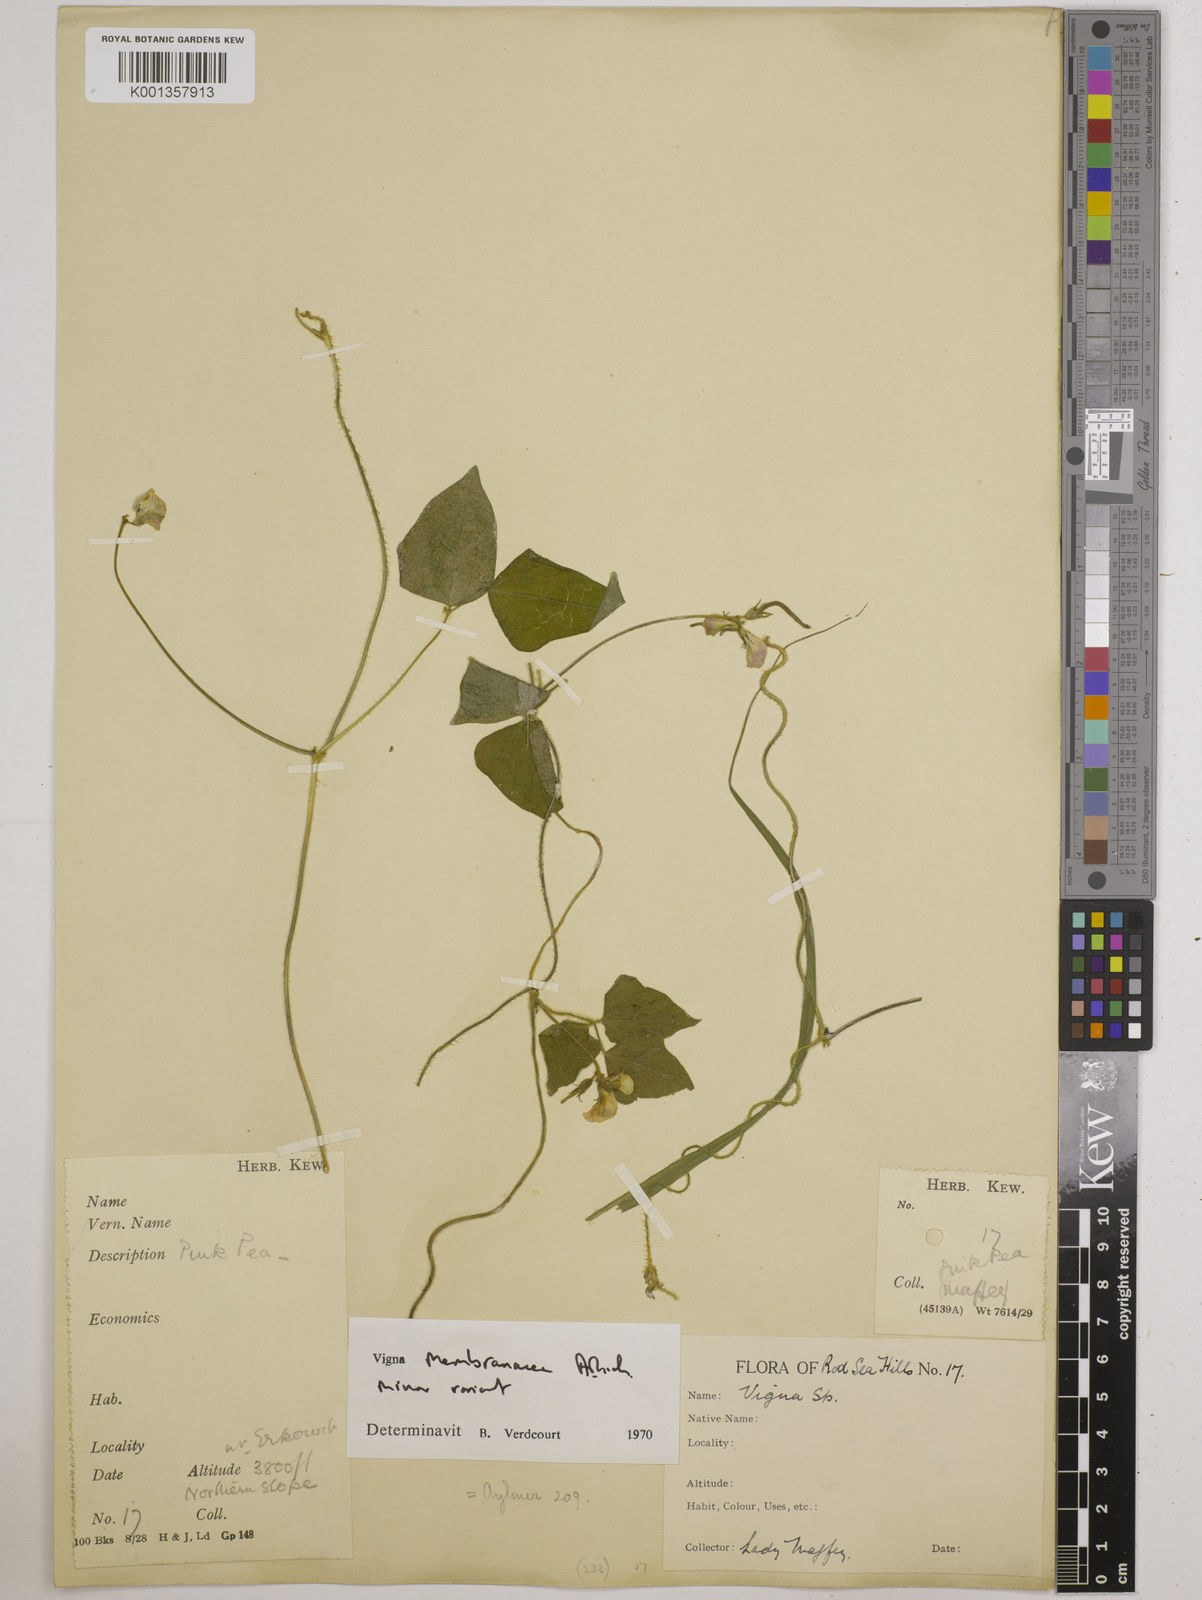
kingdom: Plantae
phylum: Tracheophyta
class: Magnoliopsida
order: Fabales
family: Fabaceae
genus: Vigna
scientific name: Vigna
